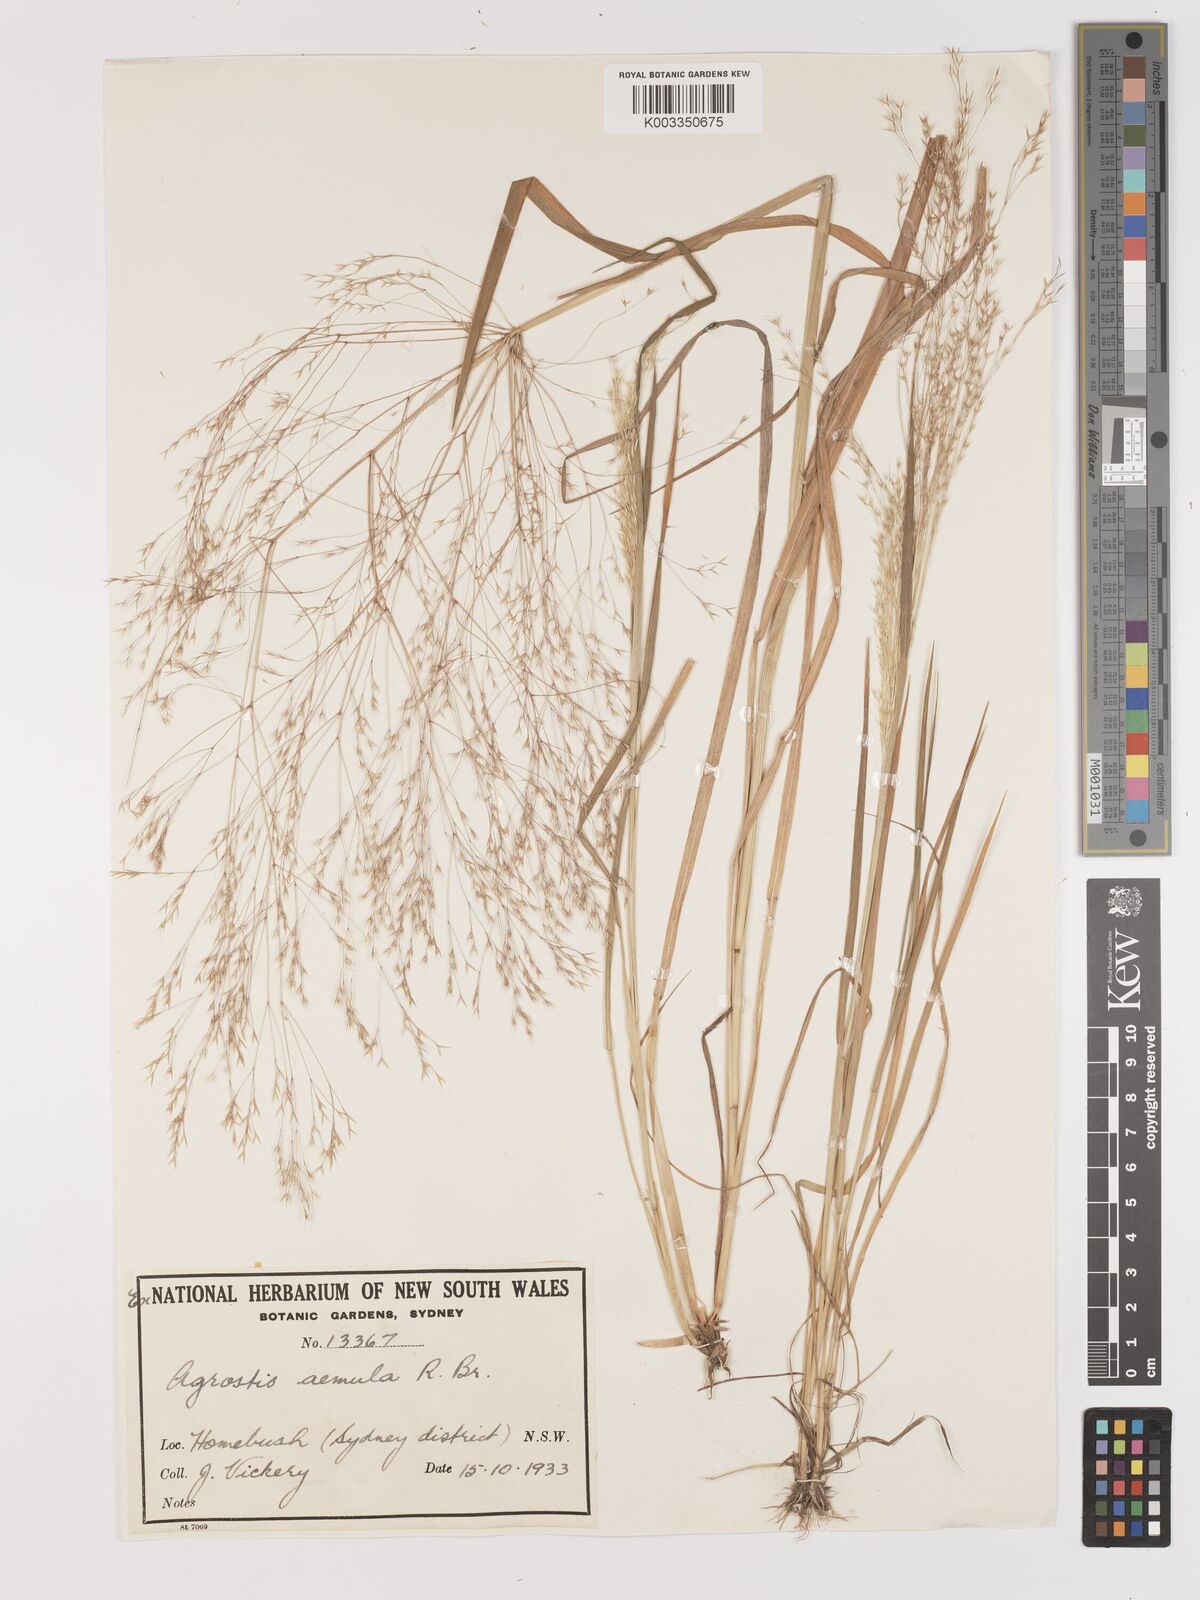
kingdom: Plantae
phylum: Tracheophyta
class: Liliopsida
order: Poales
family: Poaceae
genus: Lachnagrostis
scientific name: Lachnagrostis aemula
